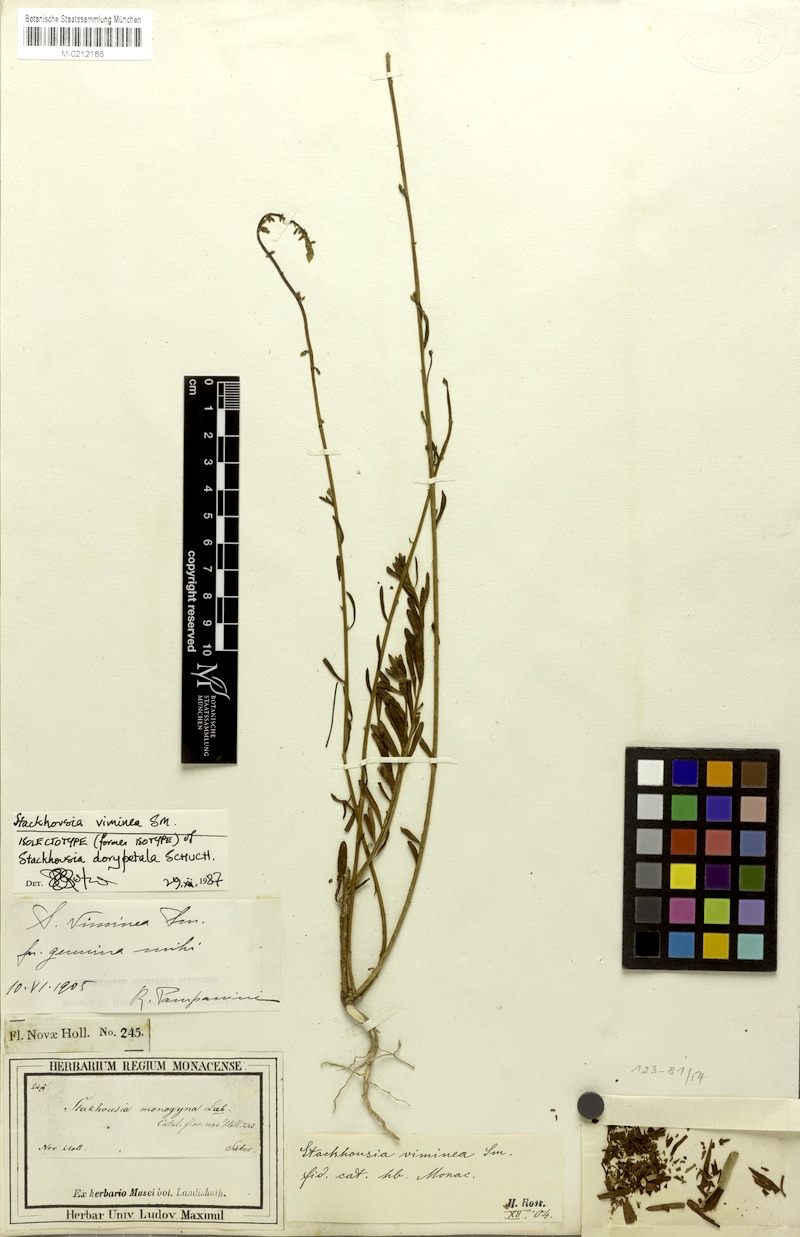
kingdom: Plantae
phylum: Tracheophyta
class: Magnoliopsida
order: Celastrales
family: Celastraceae
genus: Stackhousia
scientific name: Stackhousia viminea
